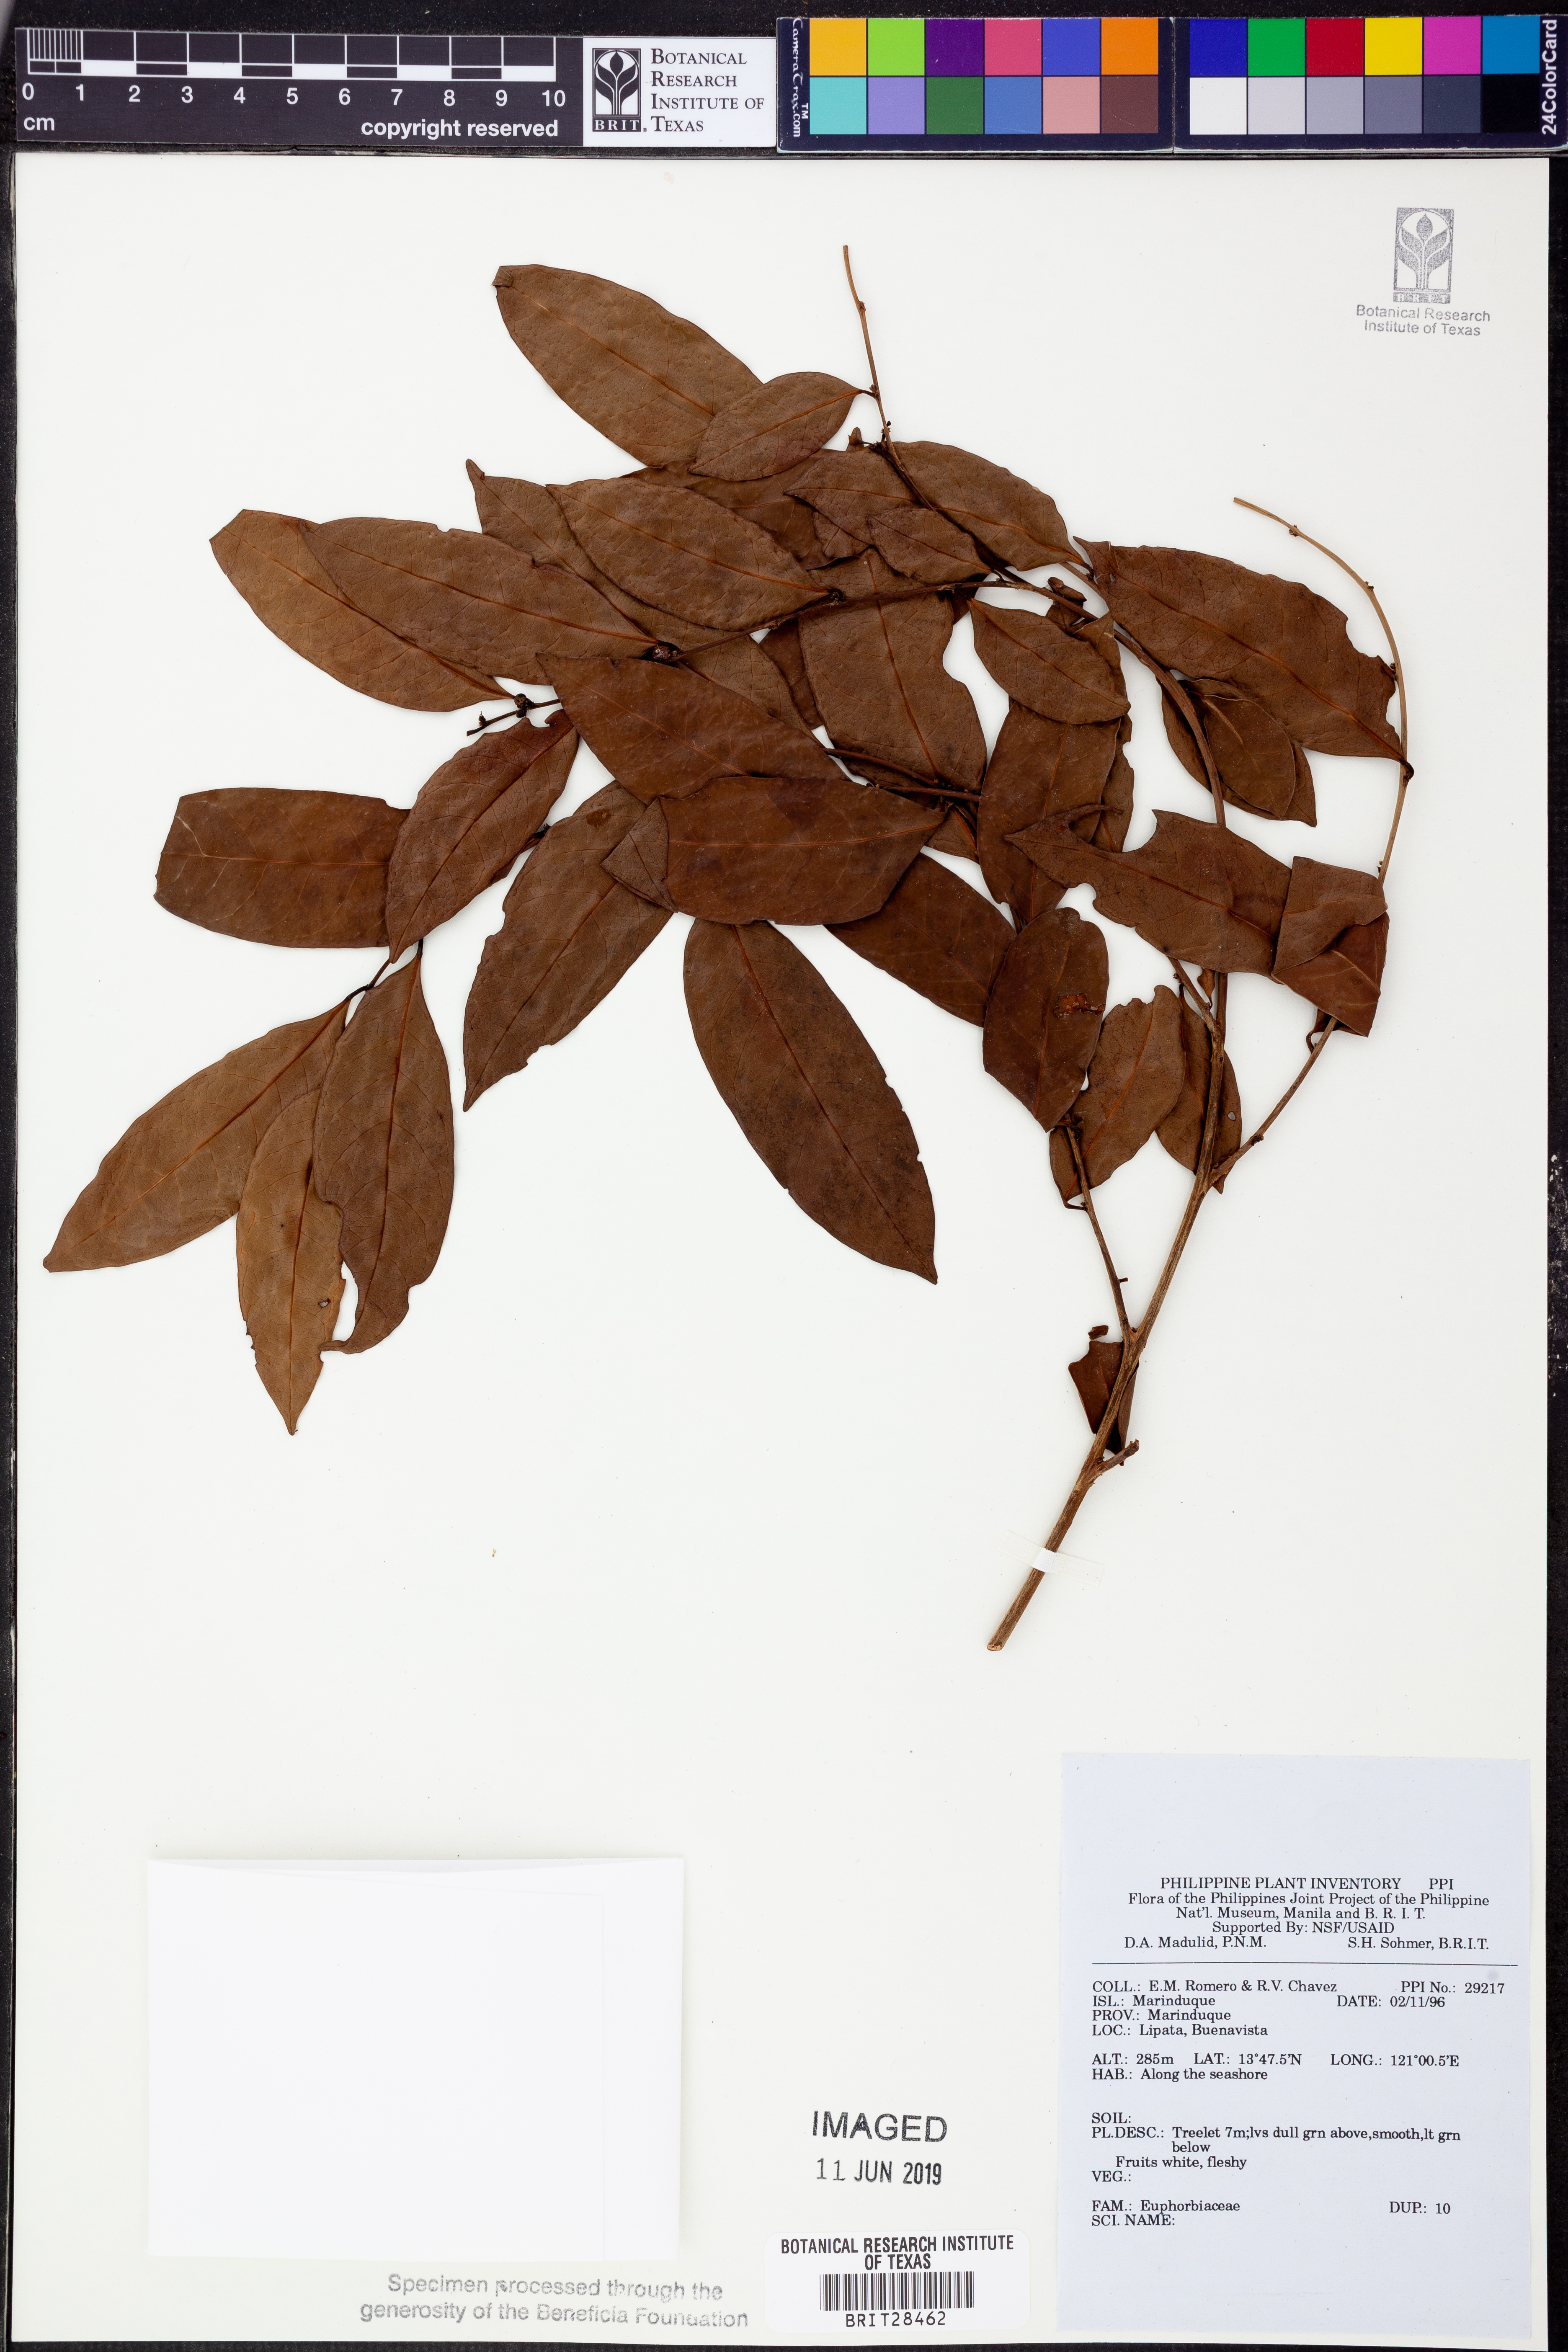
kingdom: Plantae
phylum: Tracheophyta
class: Magnoliopsida
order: Malpighiales
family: Euphorbiaceae
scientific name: Euphorbiaceae
